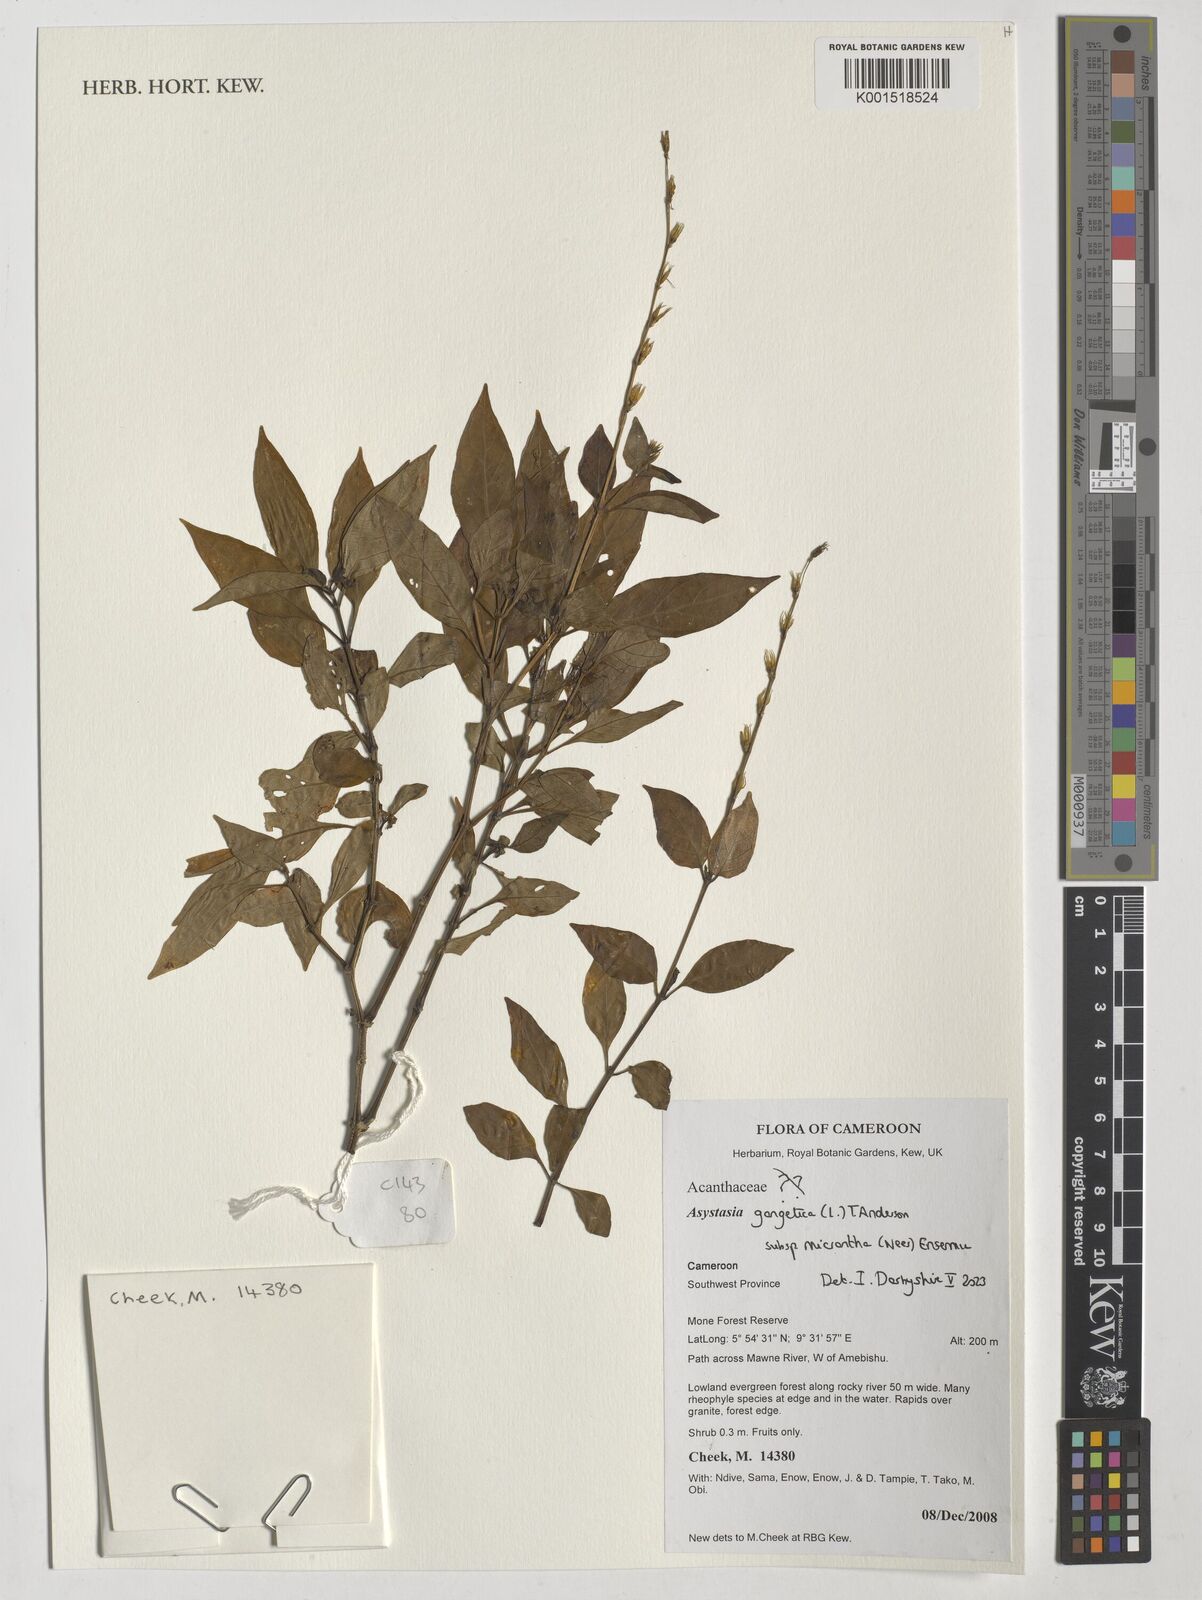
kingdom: Plantae
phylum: Tracheophyta
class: Magnoliopsida
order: Lamiales
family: Acanthaceae
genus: Asystasia
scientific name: Asystasia intrusa
